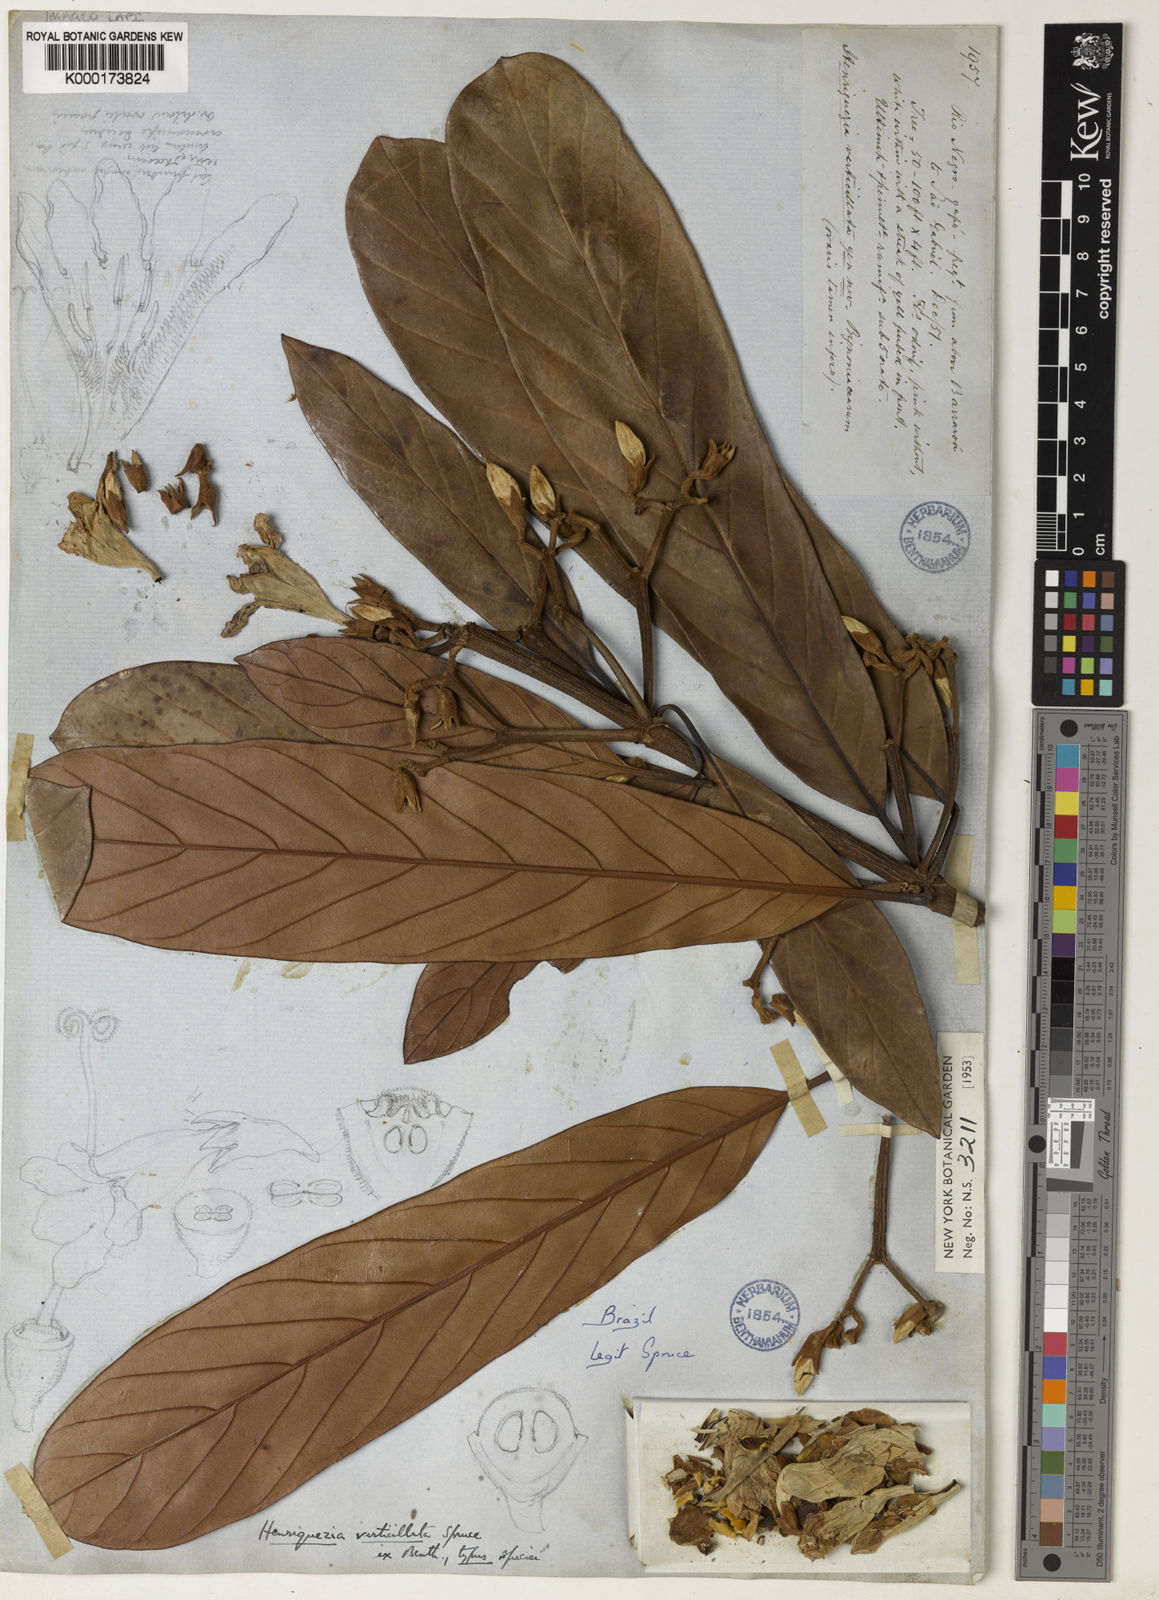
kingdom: Plantae
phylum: Tracheophyta
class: Magnoliopsida
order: Gentianales
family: Rubiaceae
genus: Henriquezia
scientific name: Henriquezia verticillata
